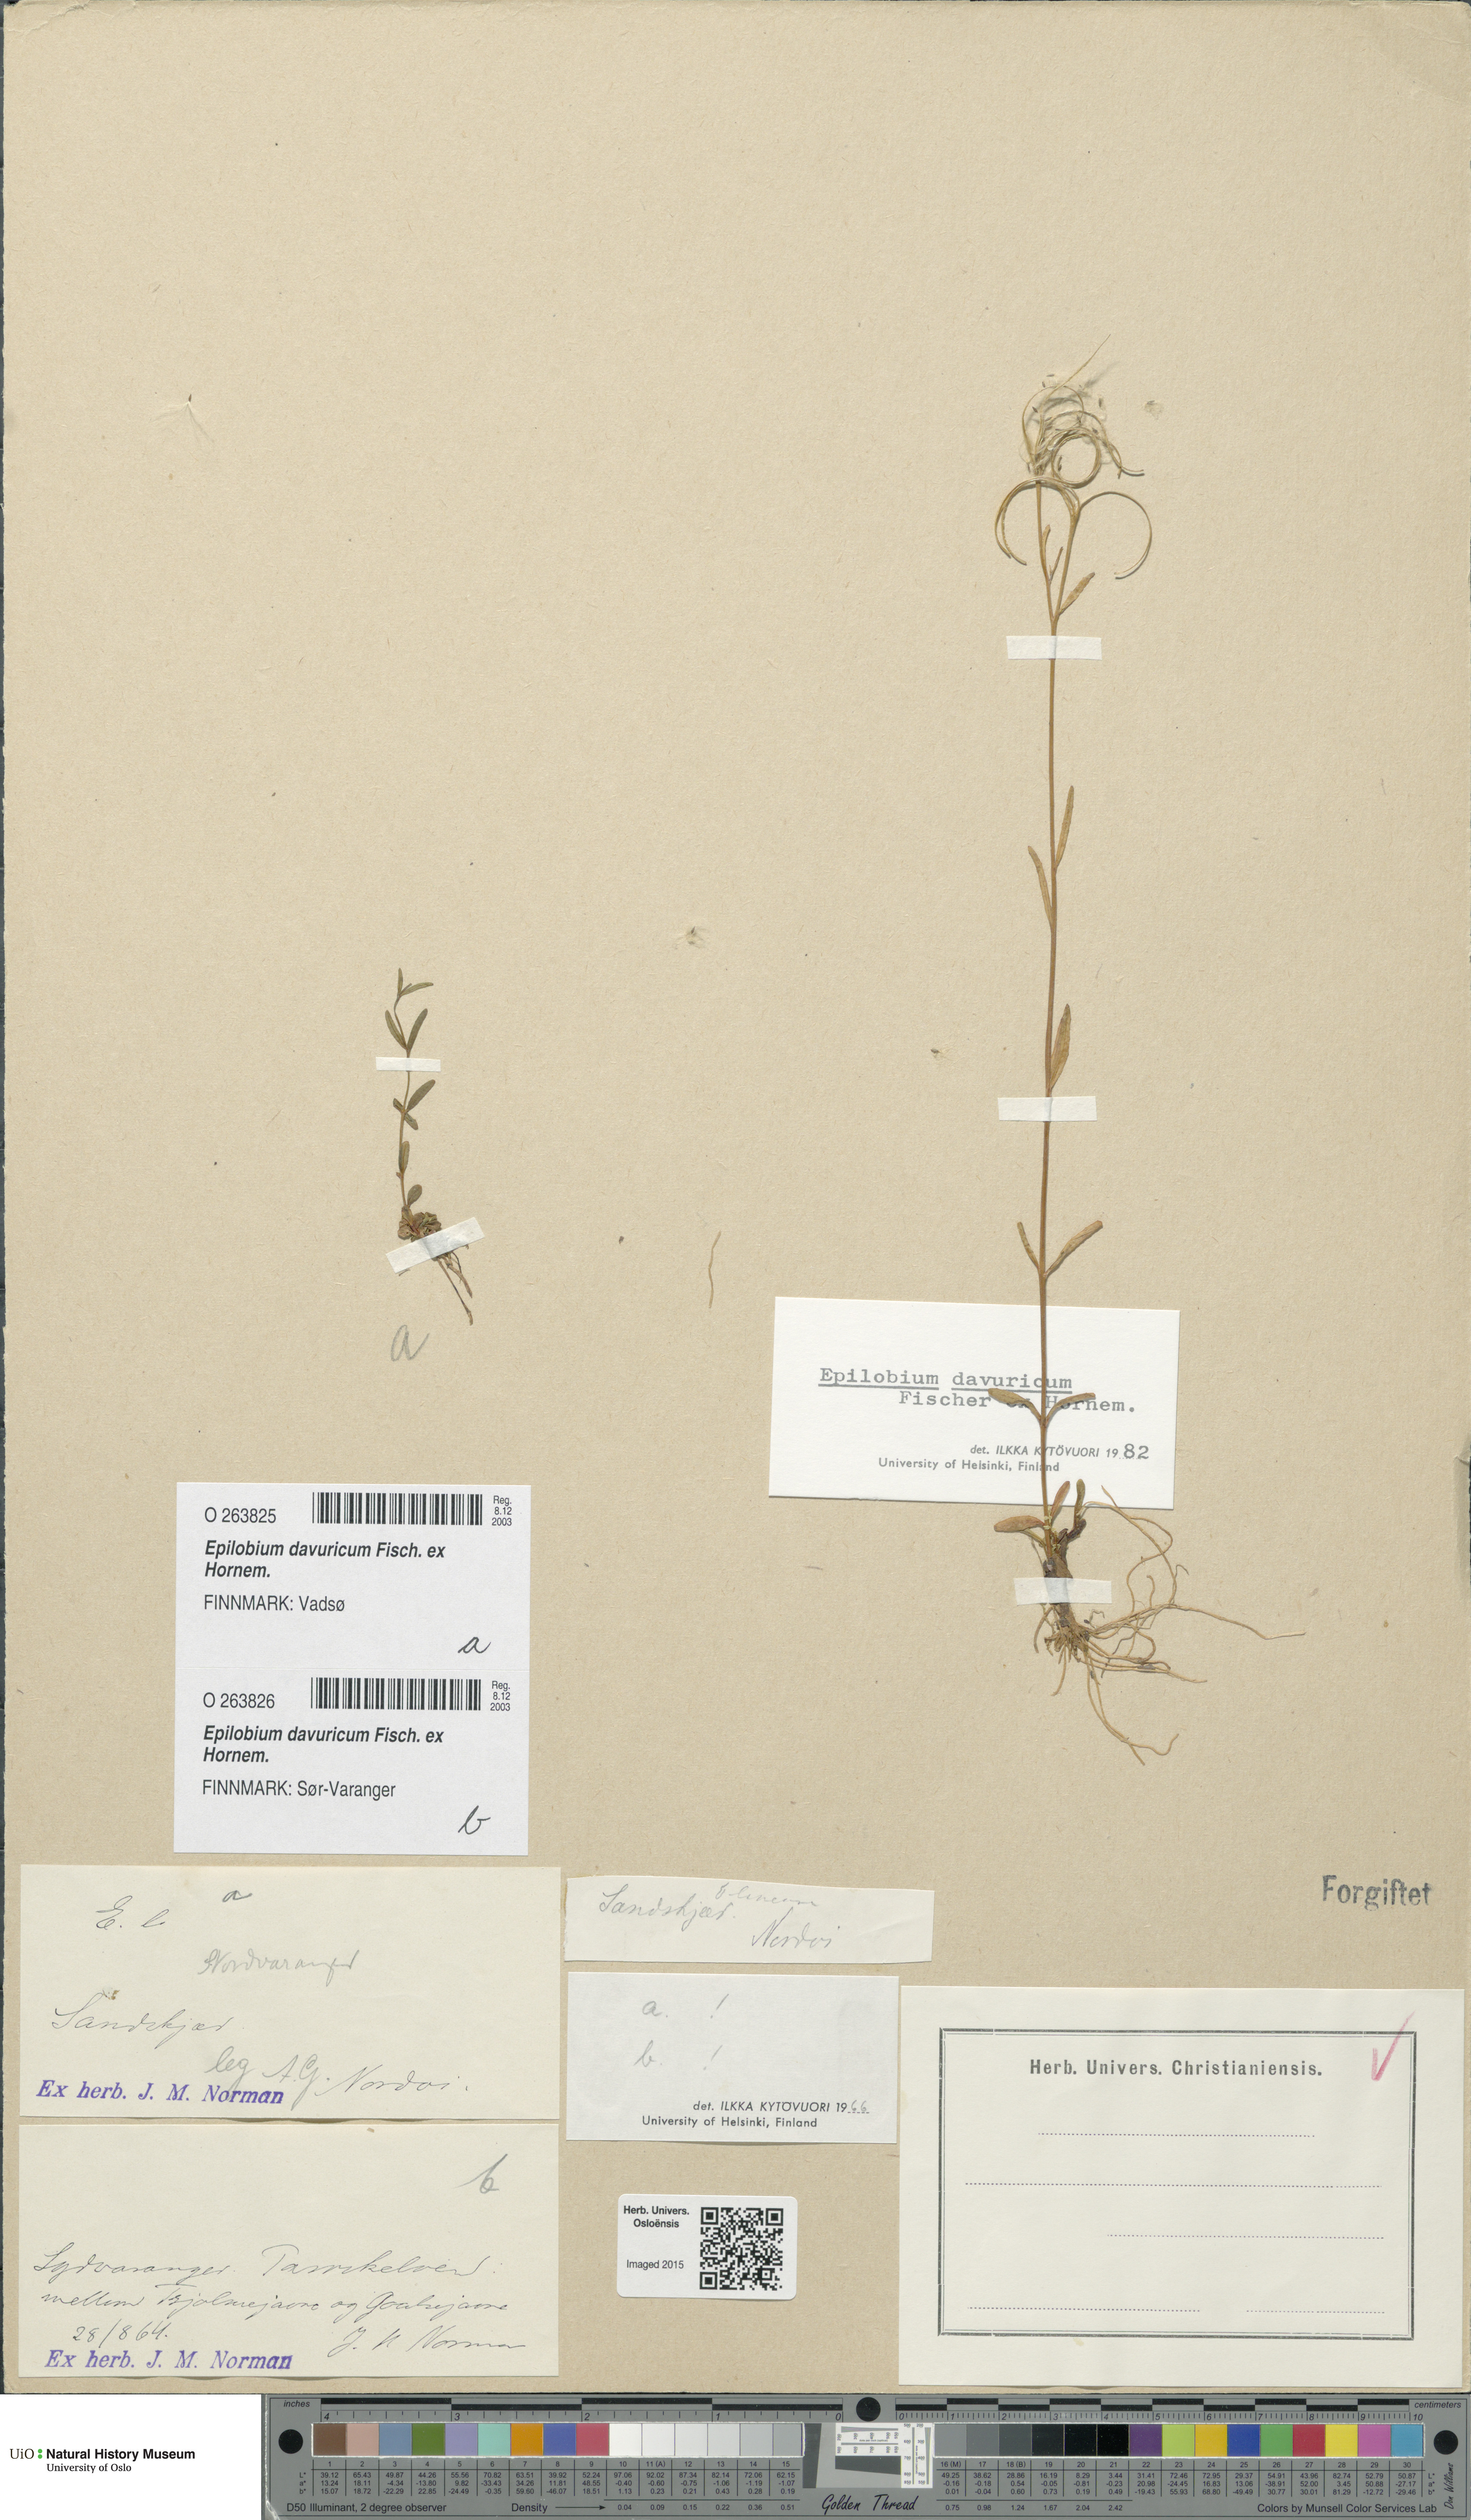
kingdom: Plantae
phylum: Tracheophyta
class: Magnoliopsida
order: Myrtales
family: Onagraceae
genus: Epilobium
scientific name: Epilobium davuricum
